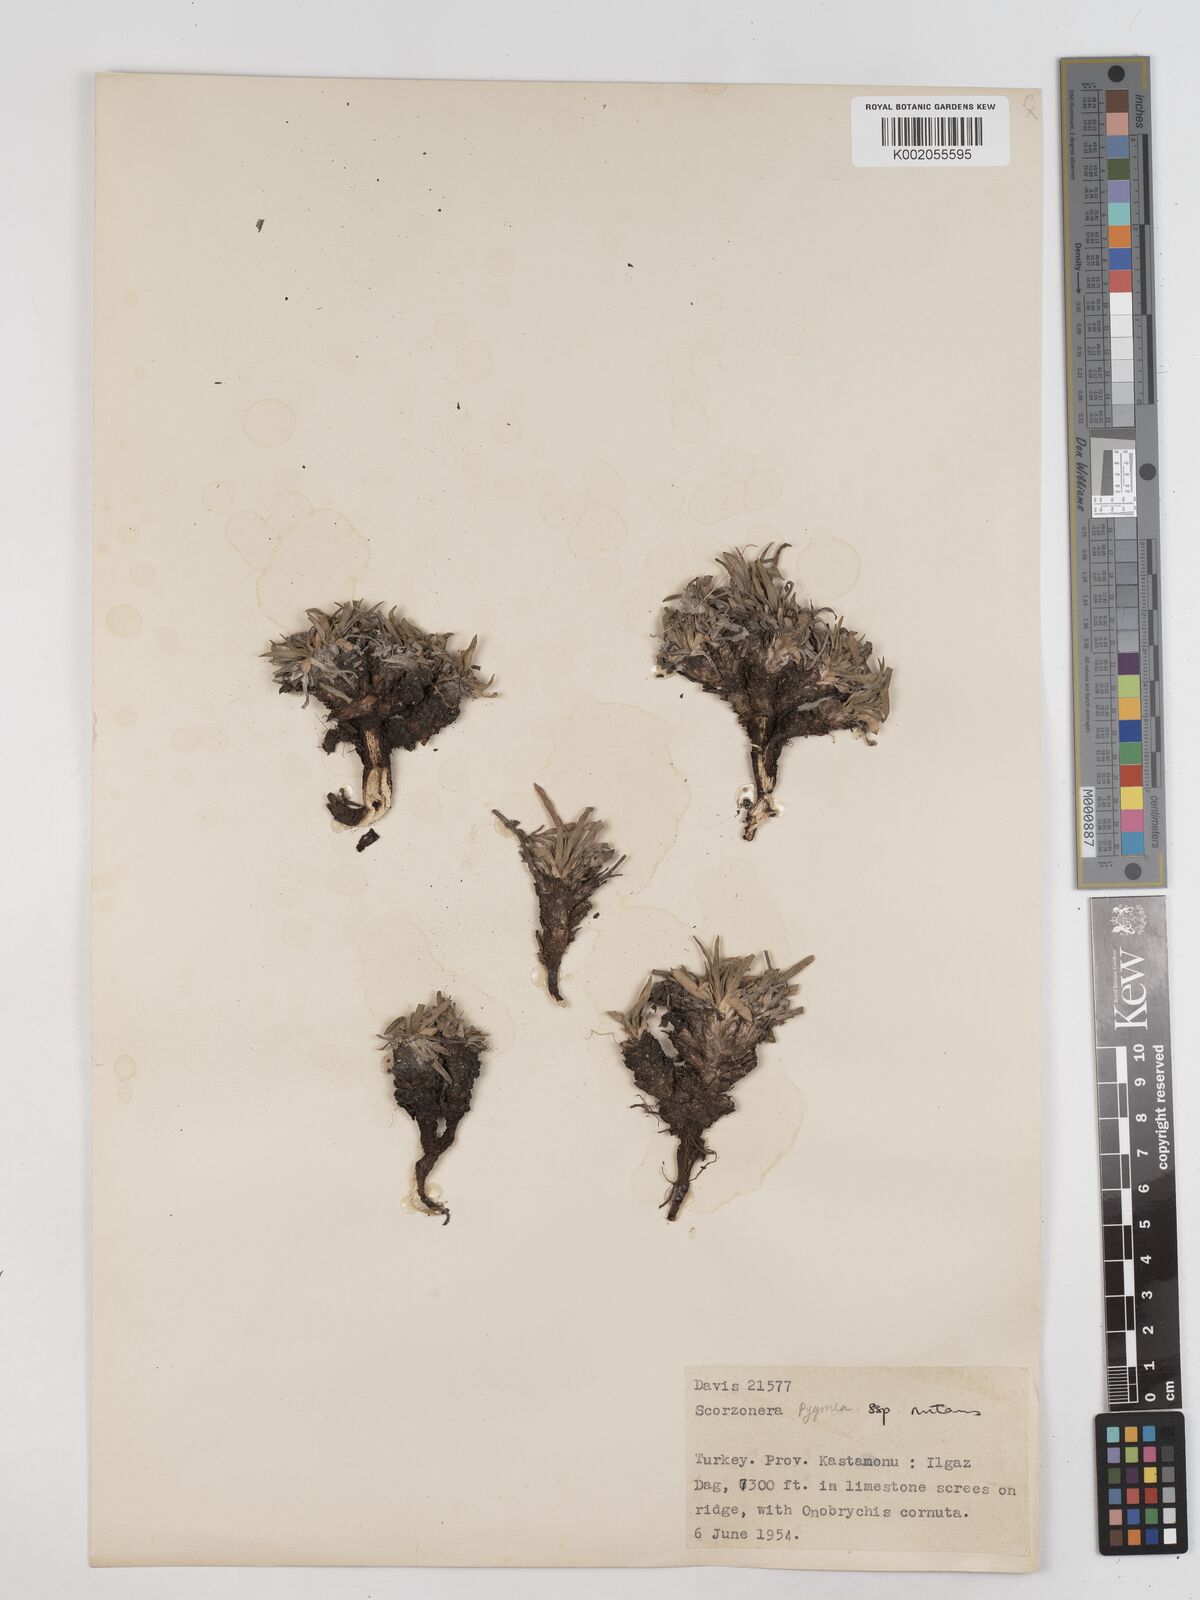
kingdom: Plantae
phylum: Tracheophyta
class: Magnoliopsida
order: Asterales
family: Asteraceae
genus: Scorzonera
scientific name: Scorzonera
